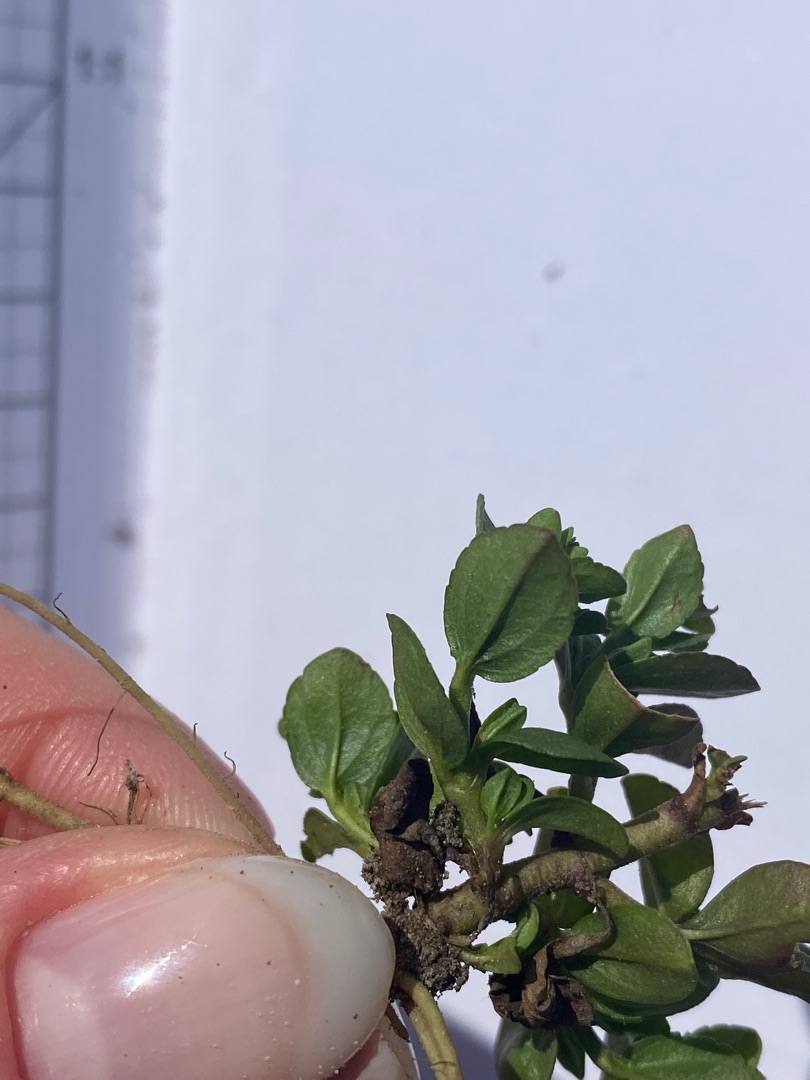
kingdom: Plantae
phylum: Tracheophyta
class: Magnoliopsida
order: Lamiales
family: Plantaginaceae
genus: Veronica
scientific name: Veronica serpyllifolia
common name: Glat ærenpris
